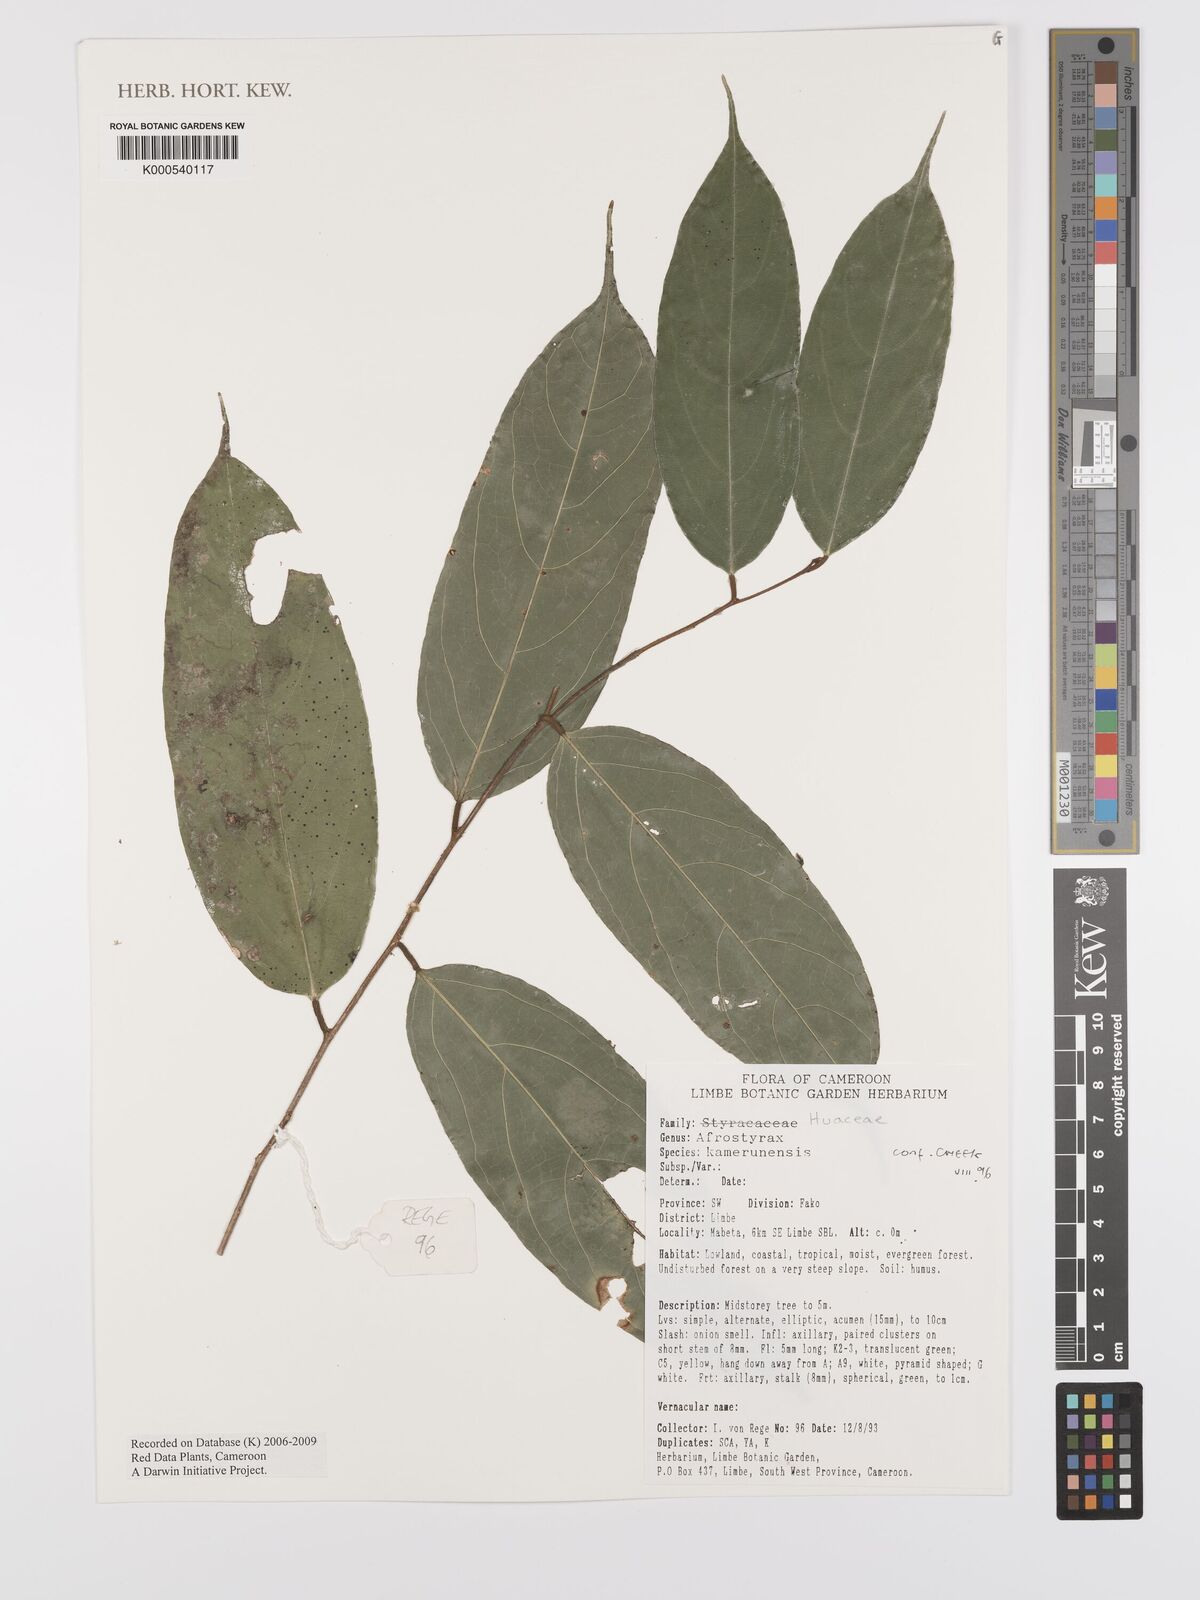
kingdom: Plantae
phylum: Tracheophyta
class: Magnoliopsida
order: Oxalidales
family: Huaceae
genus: Afrostyrax
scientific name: Afrostyrax kamerunensis
